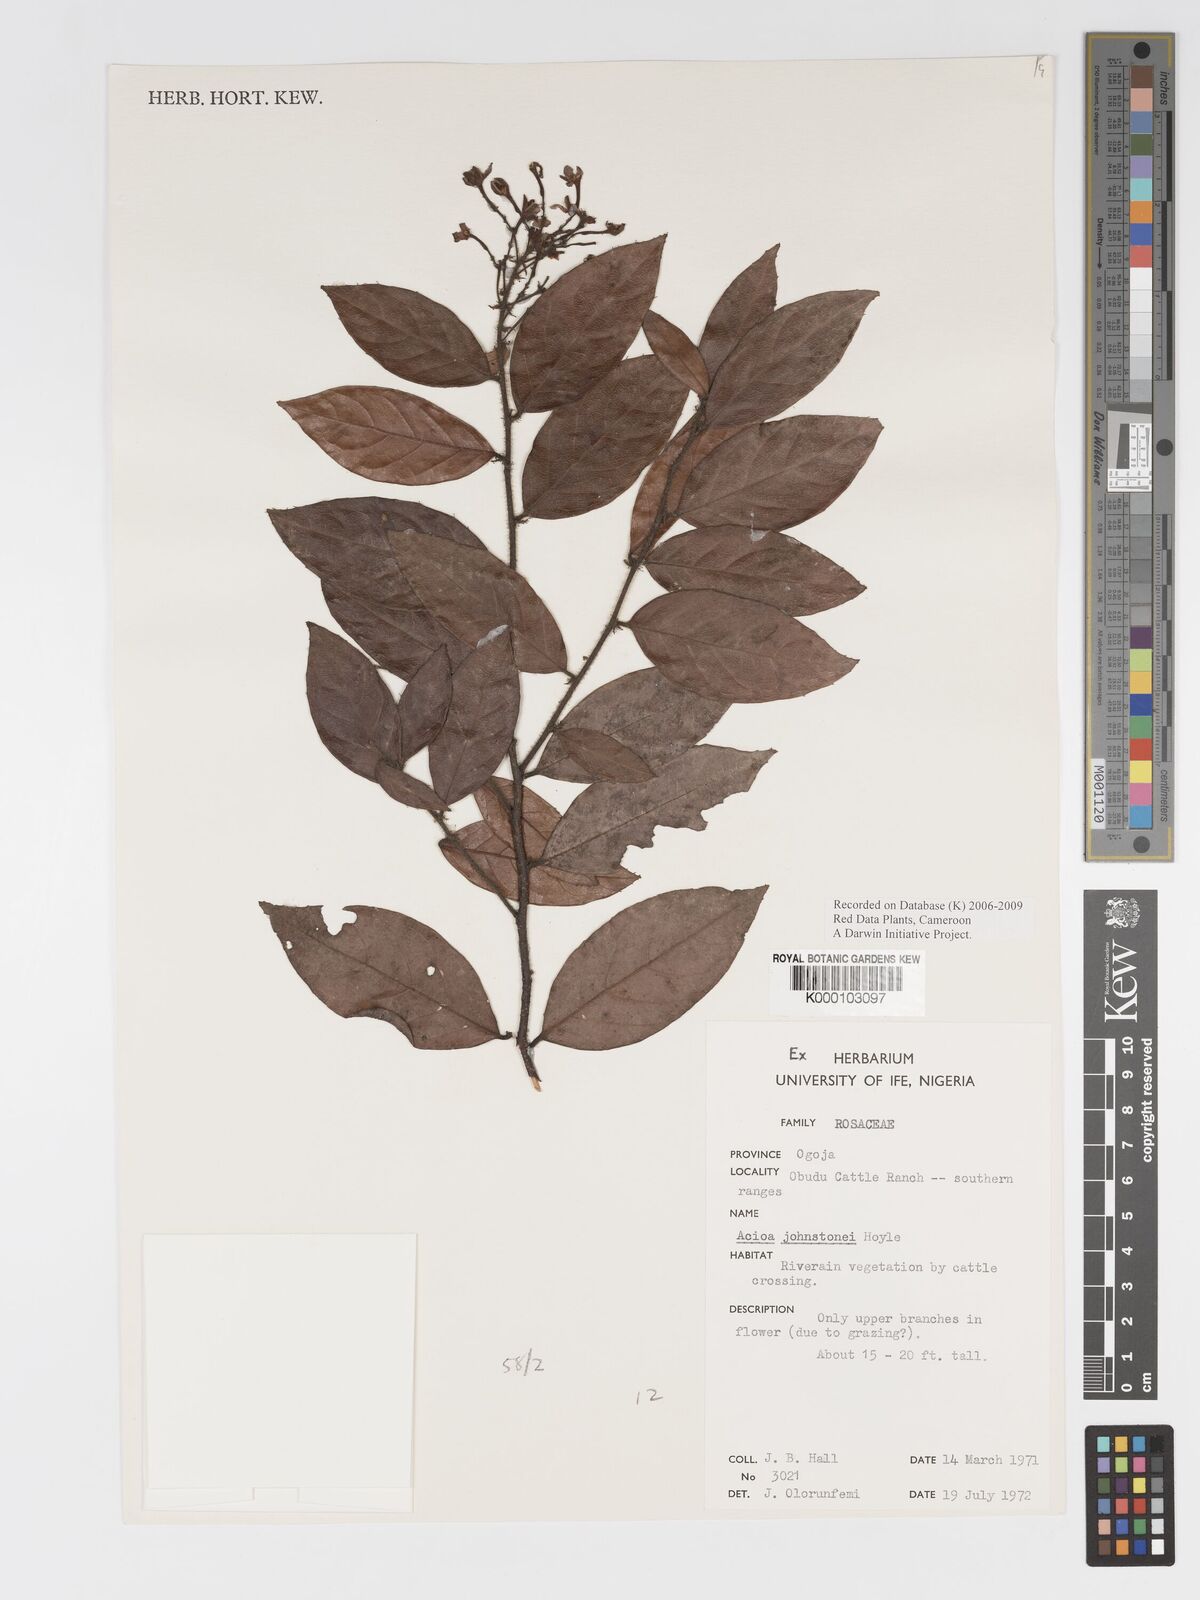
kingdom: Plantae
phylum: Tracheophyta
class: Magnoliopsida
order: Malpighiales
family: Chrysobalanaceae
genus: Dactyladenia
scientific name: Dactyladenia johnstonei
